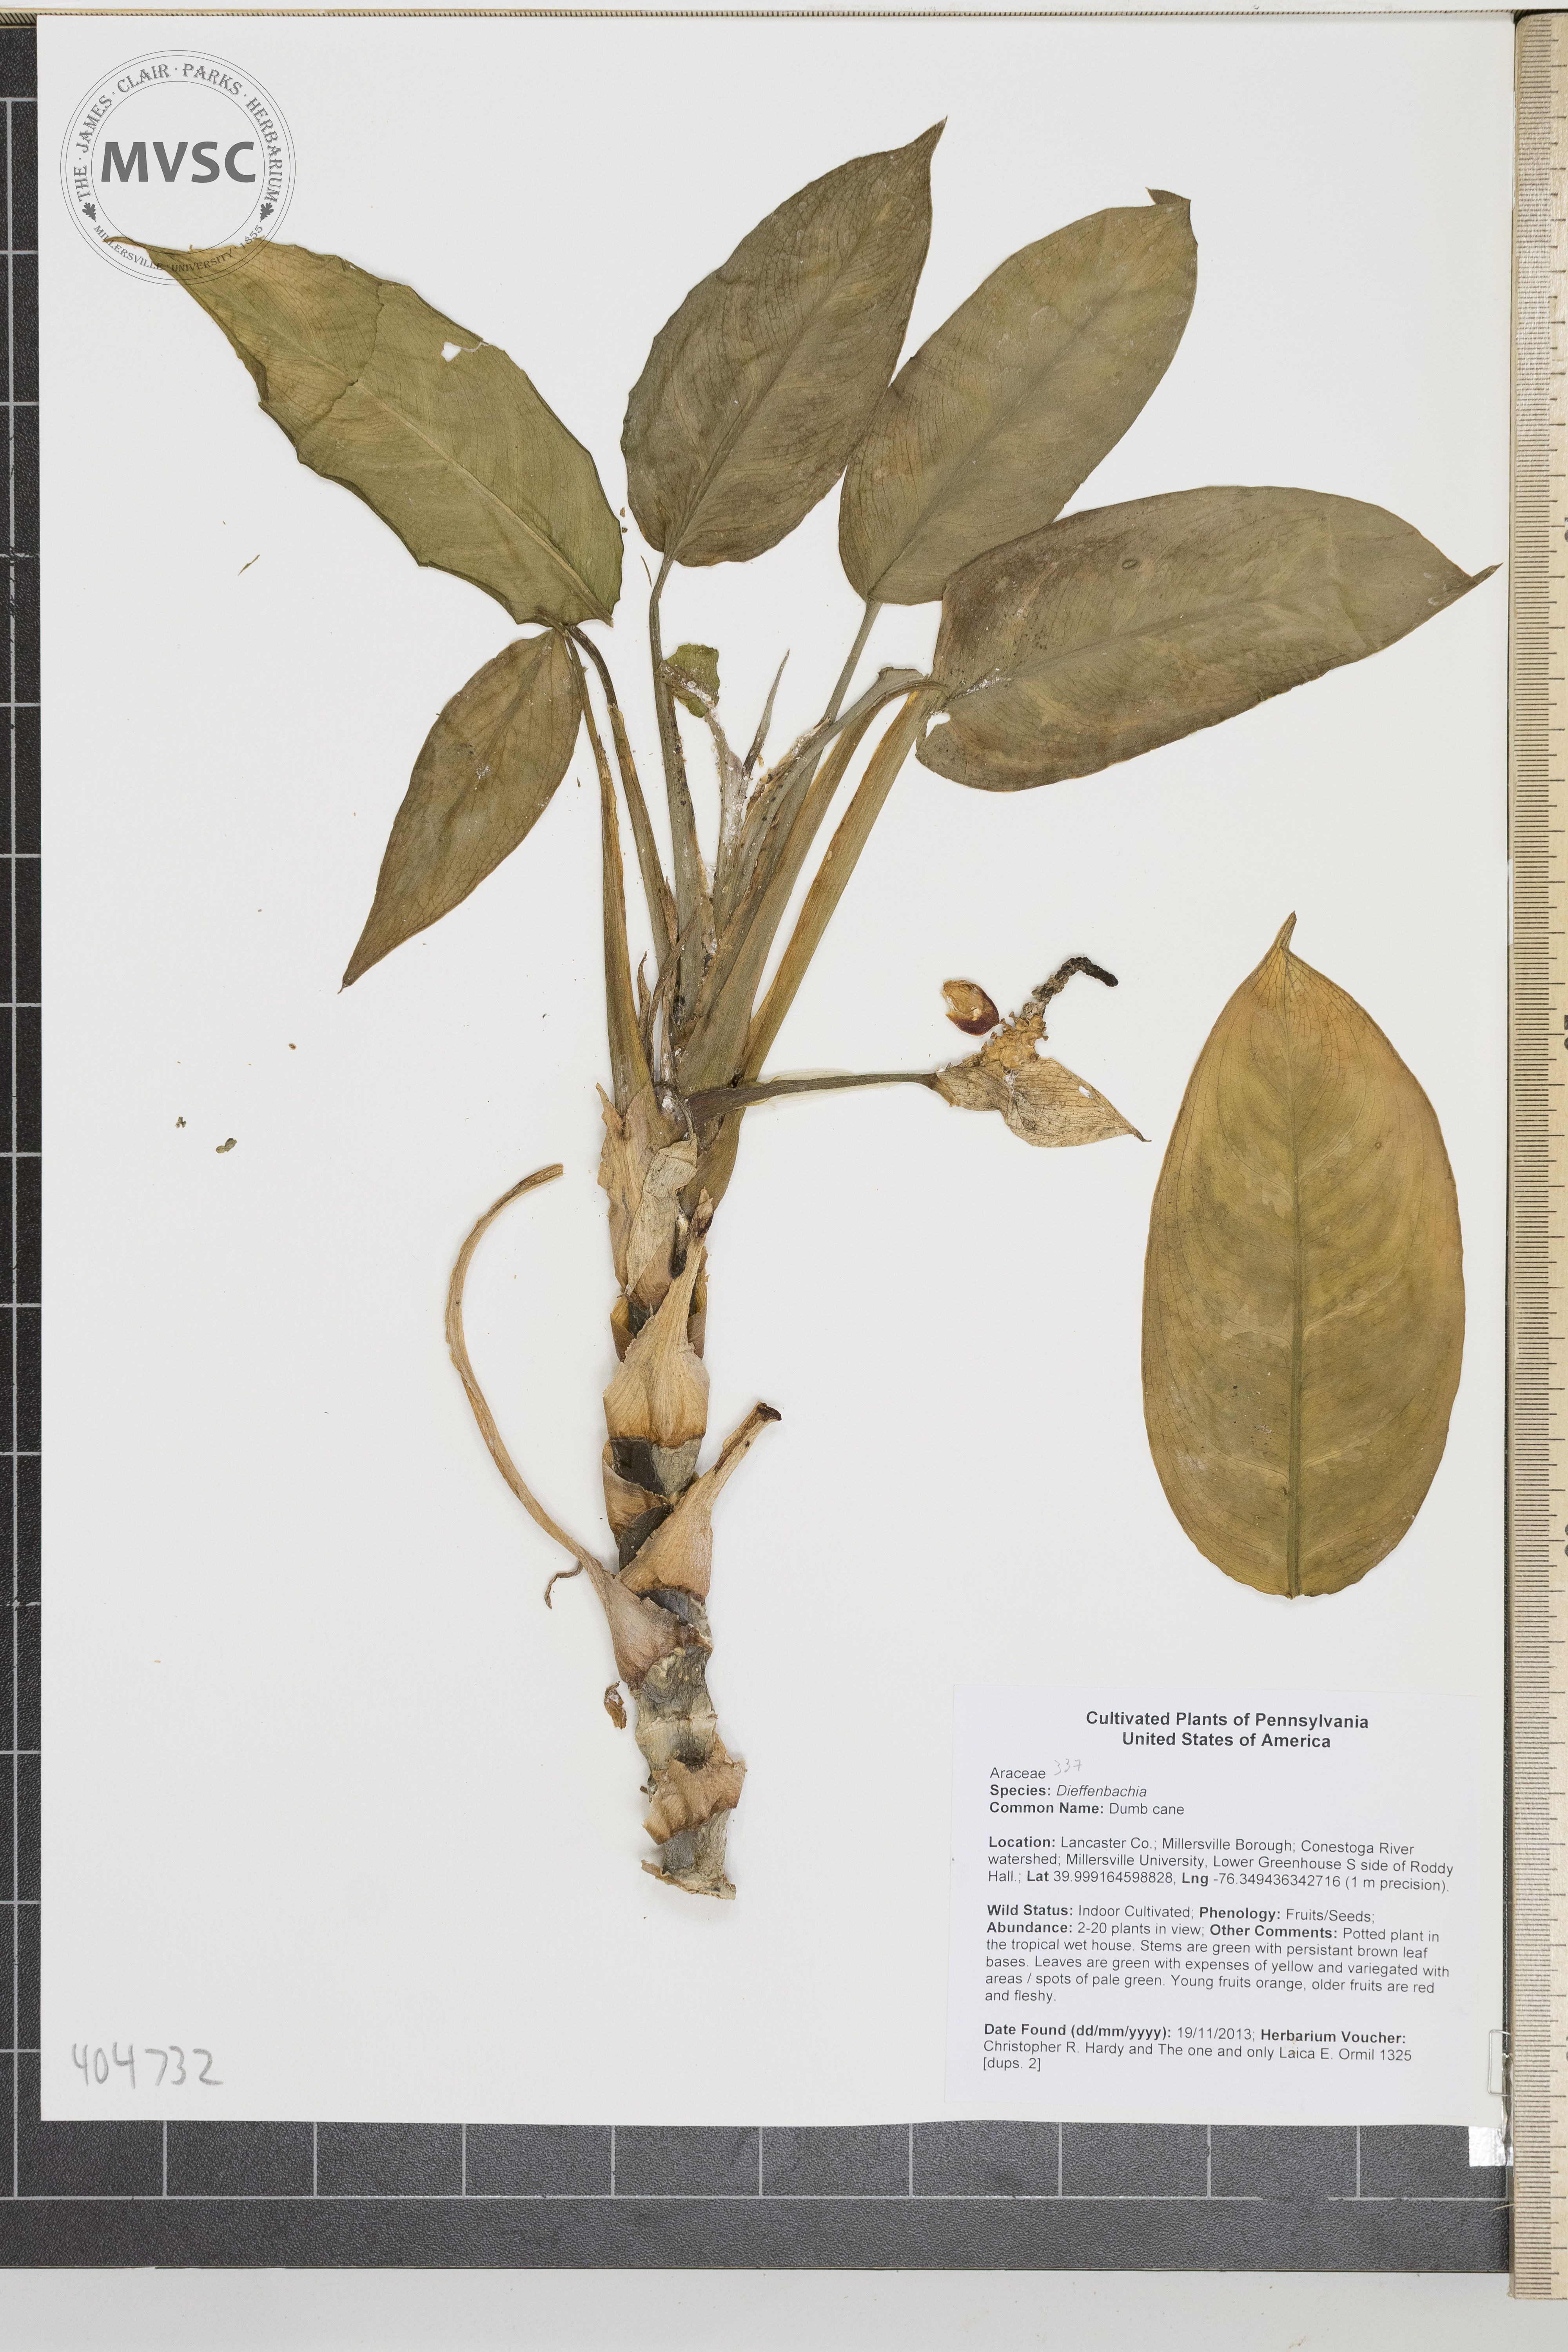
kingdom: Plantae
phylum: Tracheophyta
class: Liliopsida
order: Alismatales
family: Araceae
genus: Dieffenbachia
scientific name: Dieffenbachia
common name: Dumb cane
